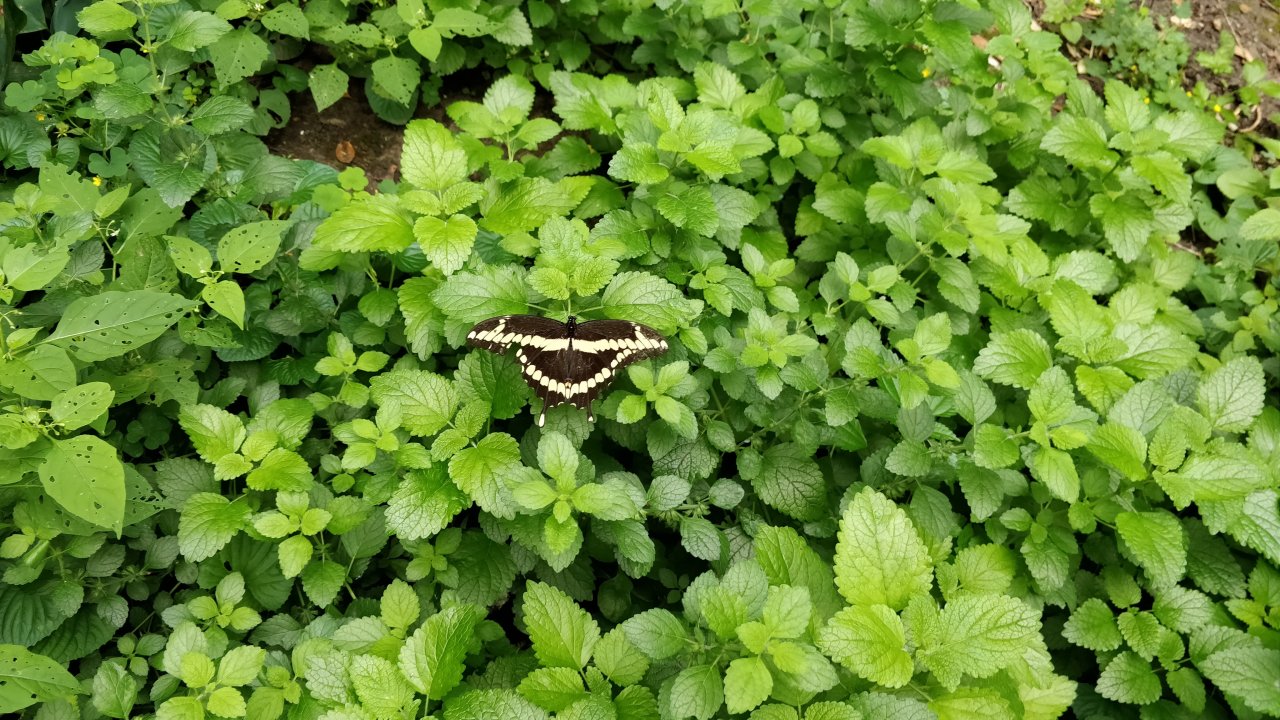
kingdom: Animalia
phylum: Arthropoda
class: Insecta
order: Lepidoptera
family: Papilionidae
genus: Papilio
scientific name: Papilio cresphontes
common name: Eastern Giant Swallowtail
